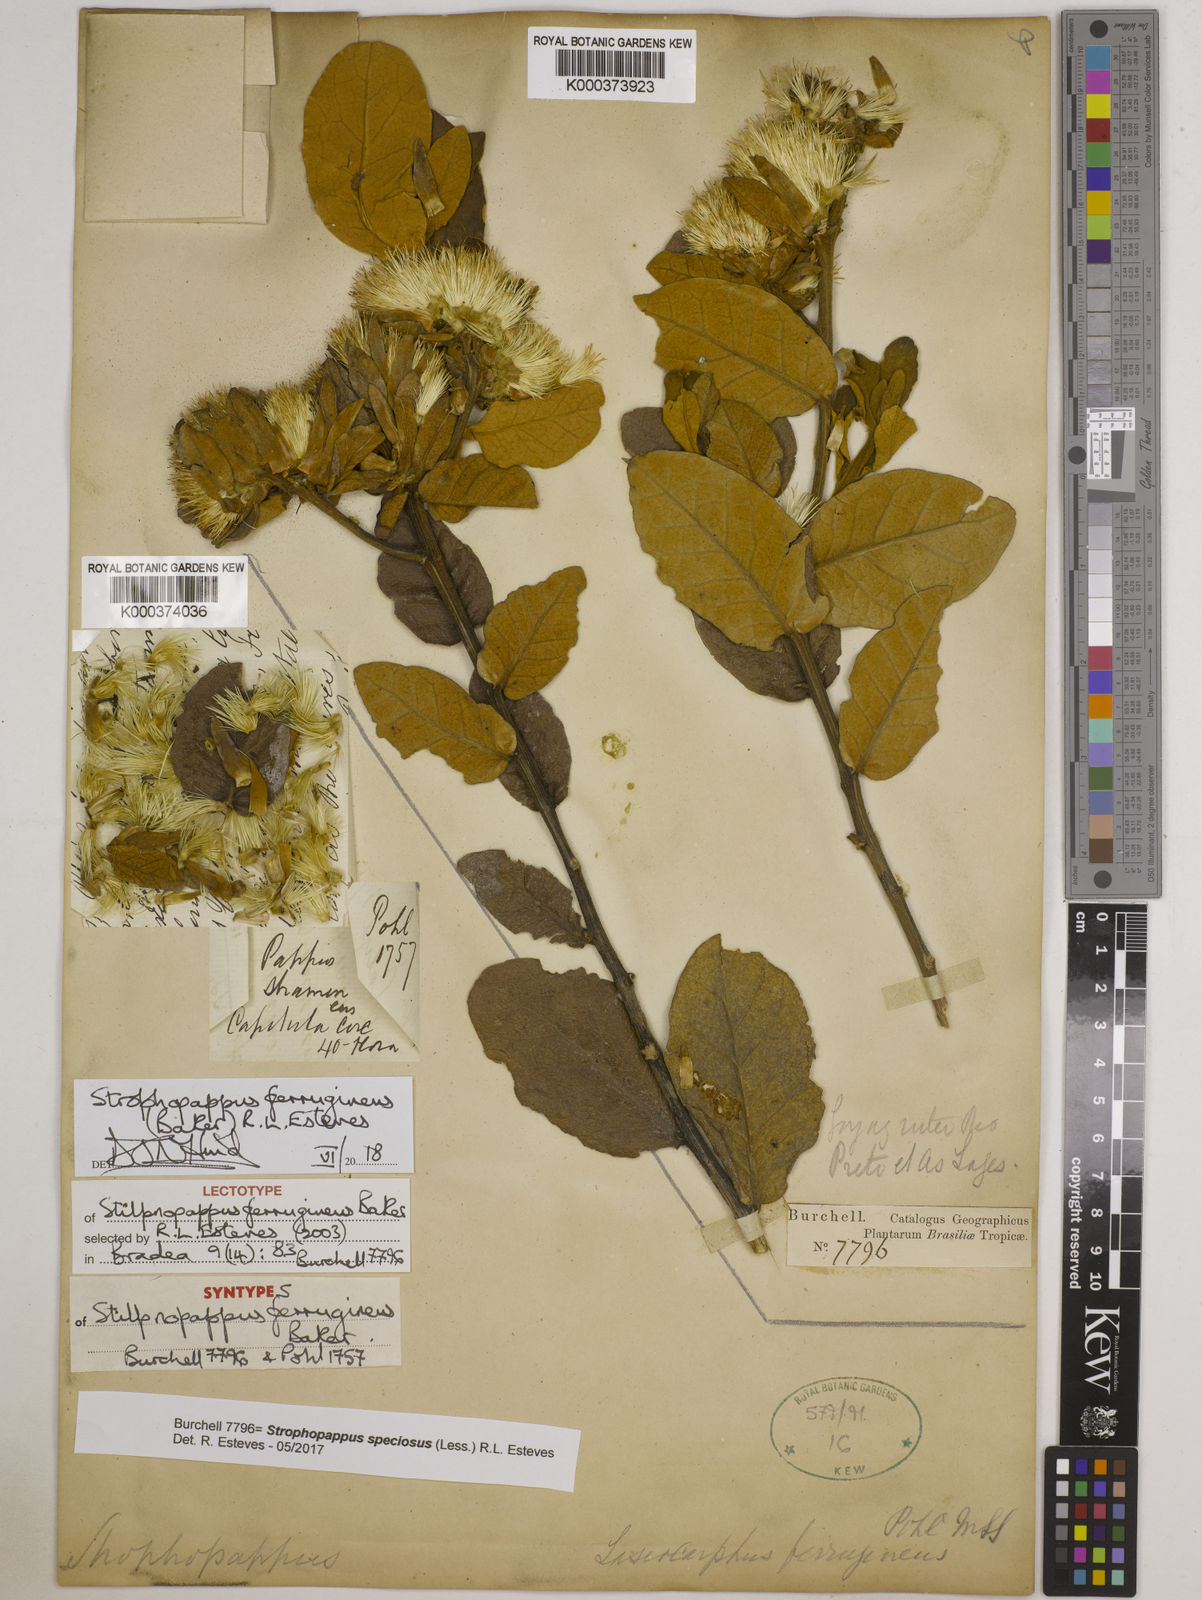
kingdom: Plantae
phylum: Tracheophyta
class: Magnoliopsida
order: Asterales
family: Asteraceae
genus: Stilpnopappus
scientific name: Stilpnopappus ferrugineus
